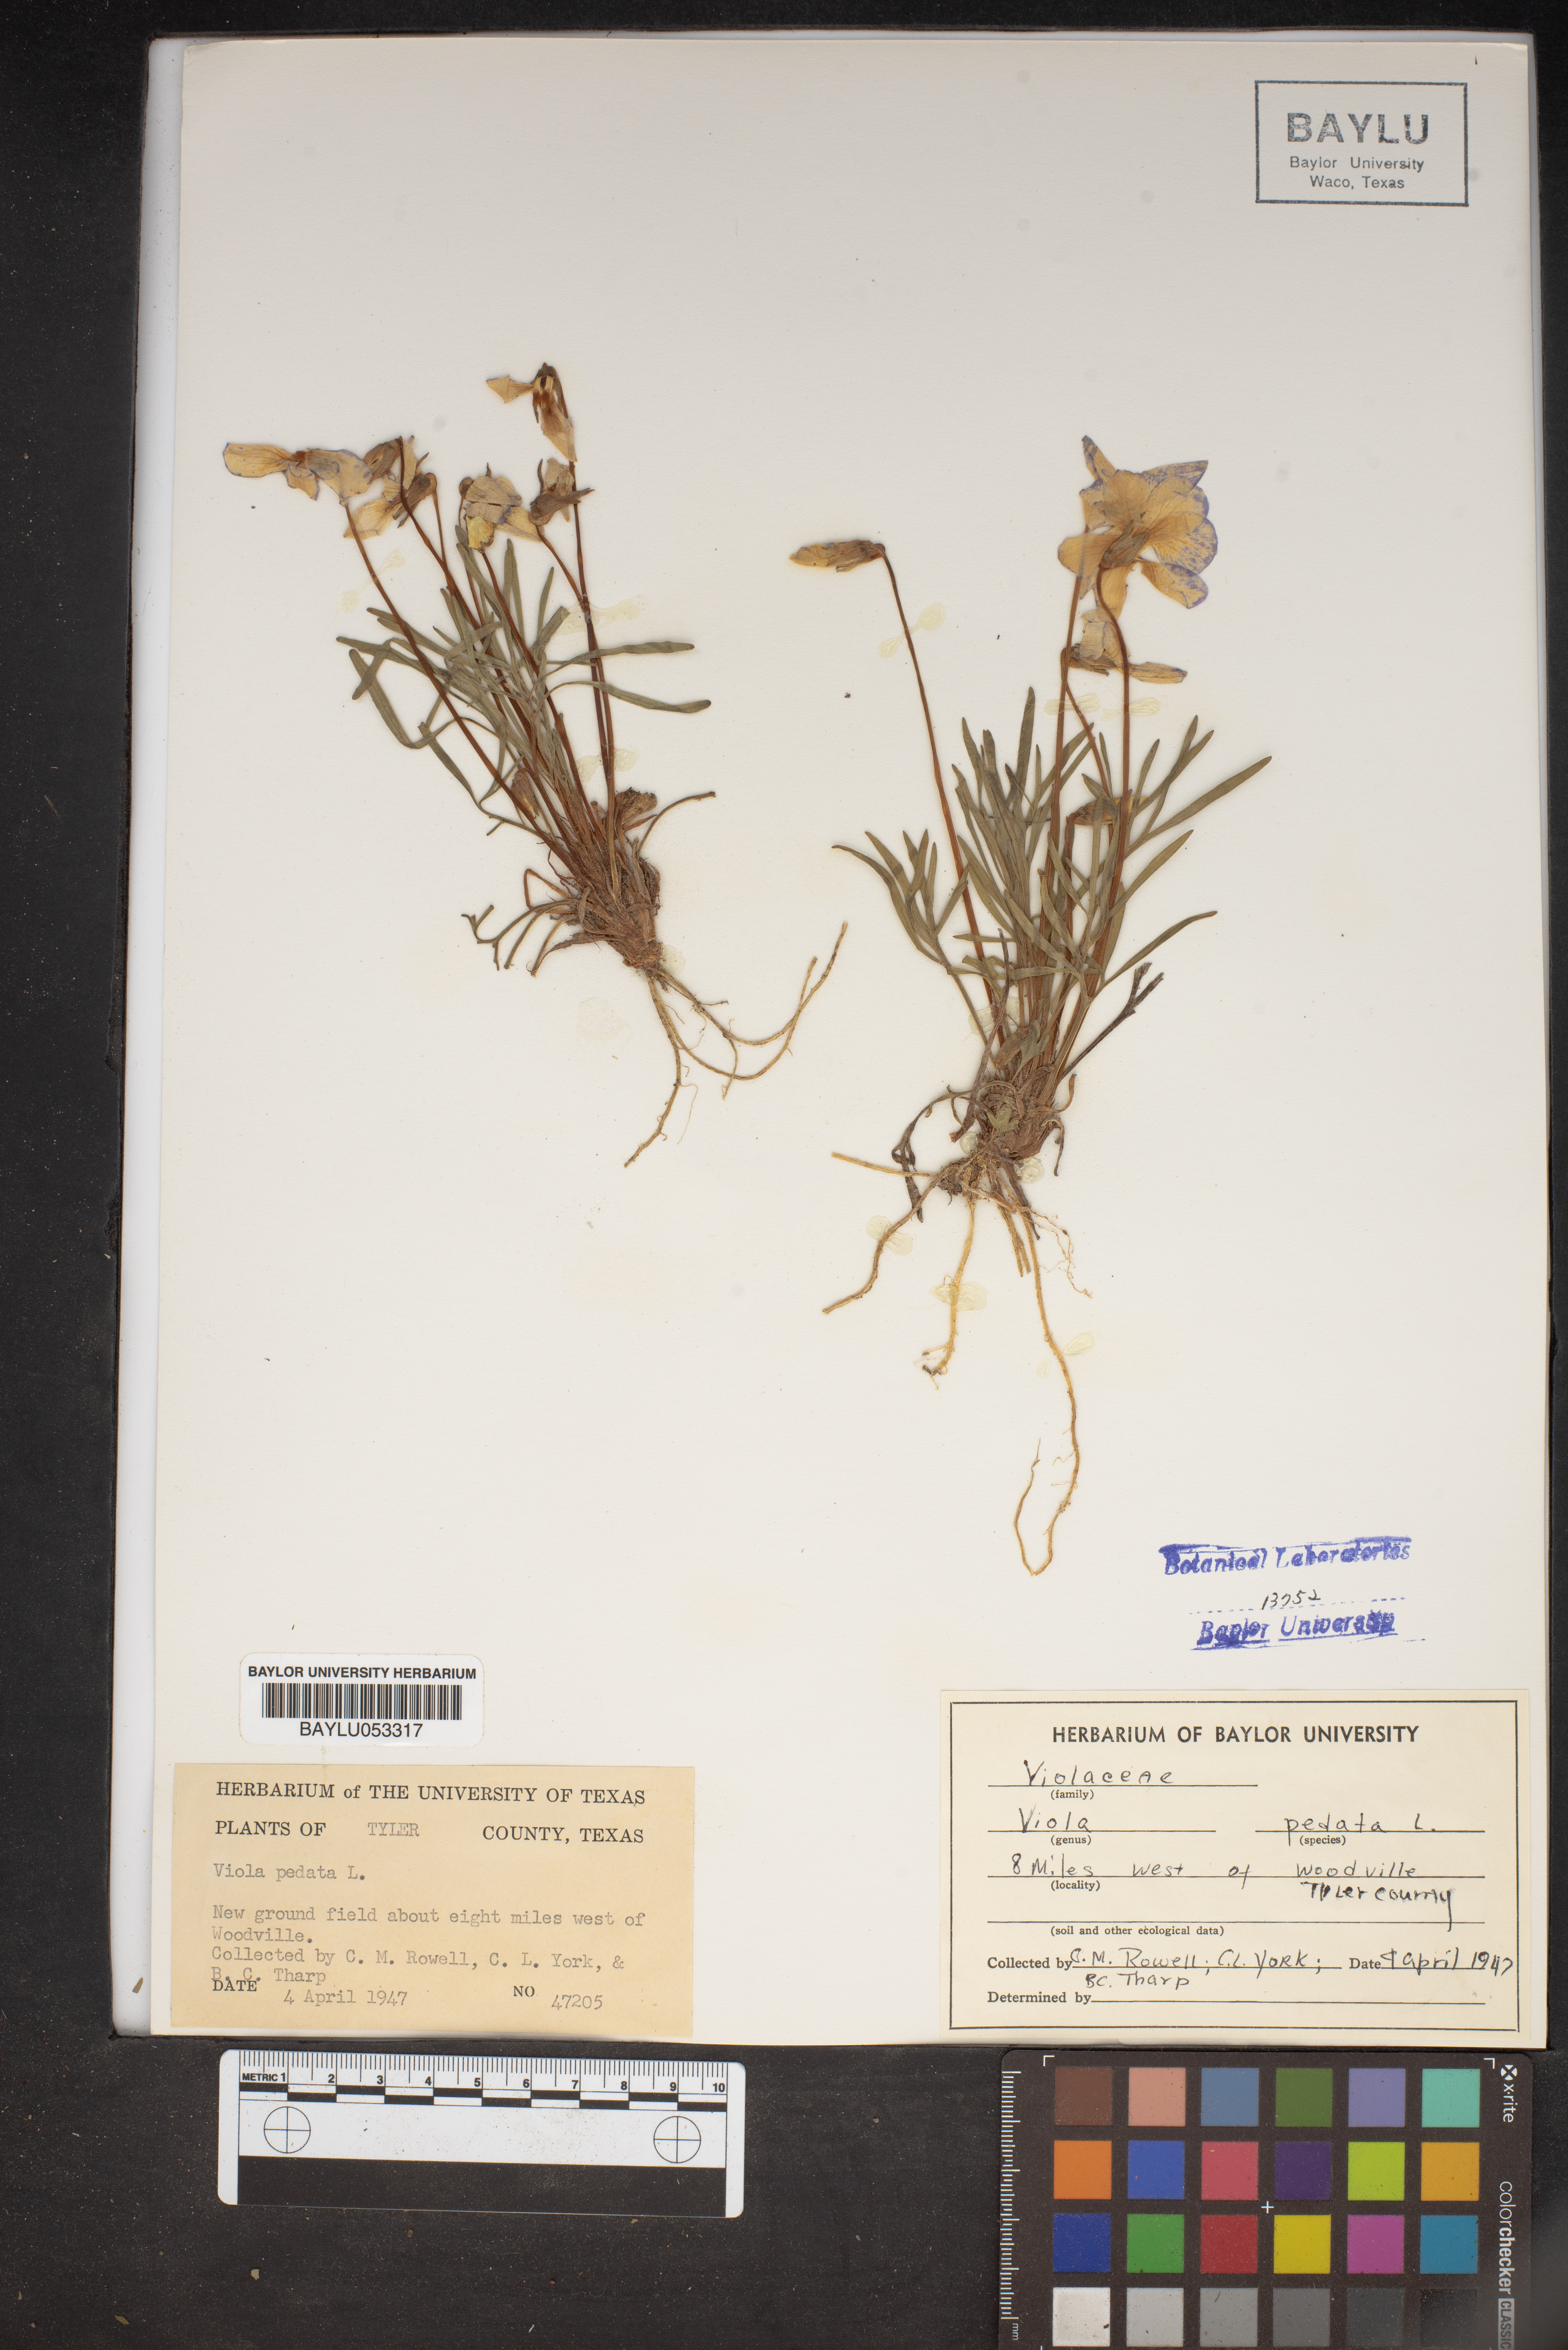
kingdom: Plantae
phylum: Tracheophyta
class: Magnoliopsida
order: Malpighiales
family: Violaceae
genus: Viola
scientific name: Viola pedata
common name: Pansy violet
